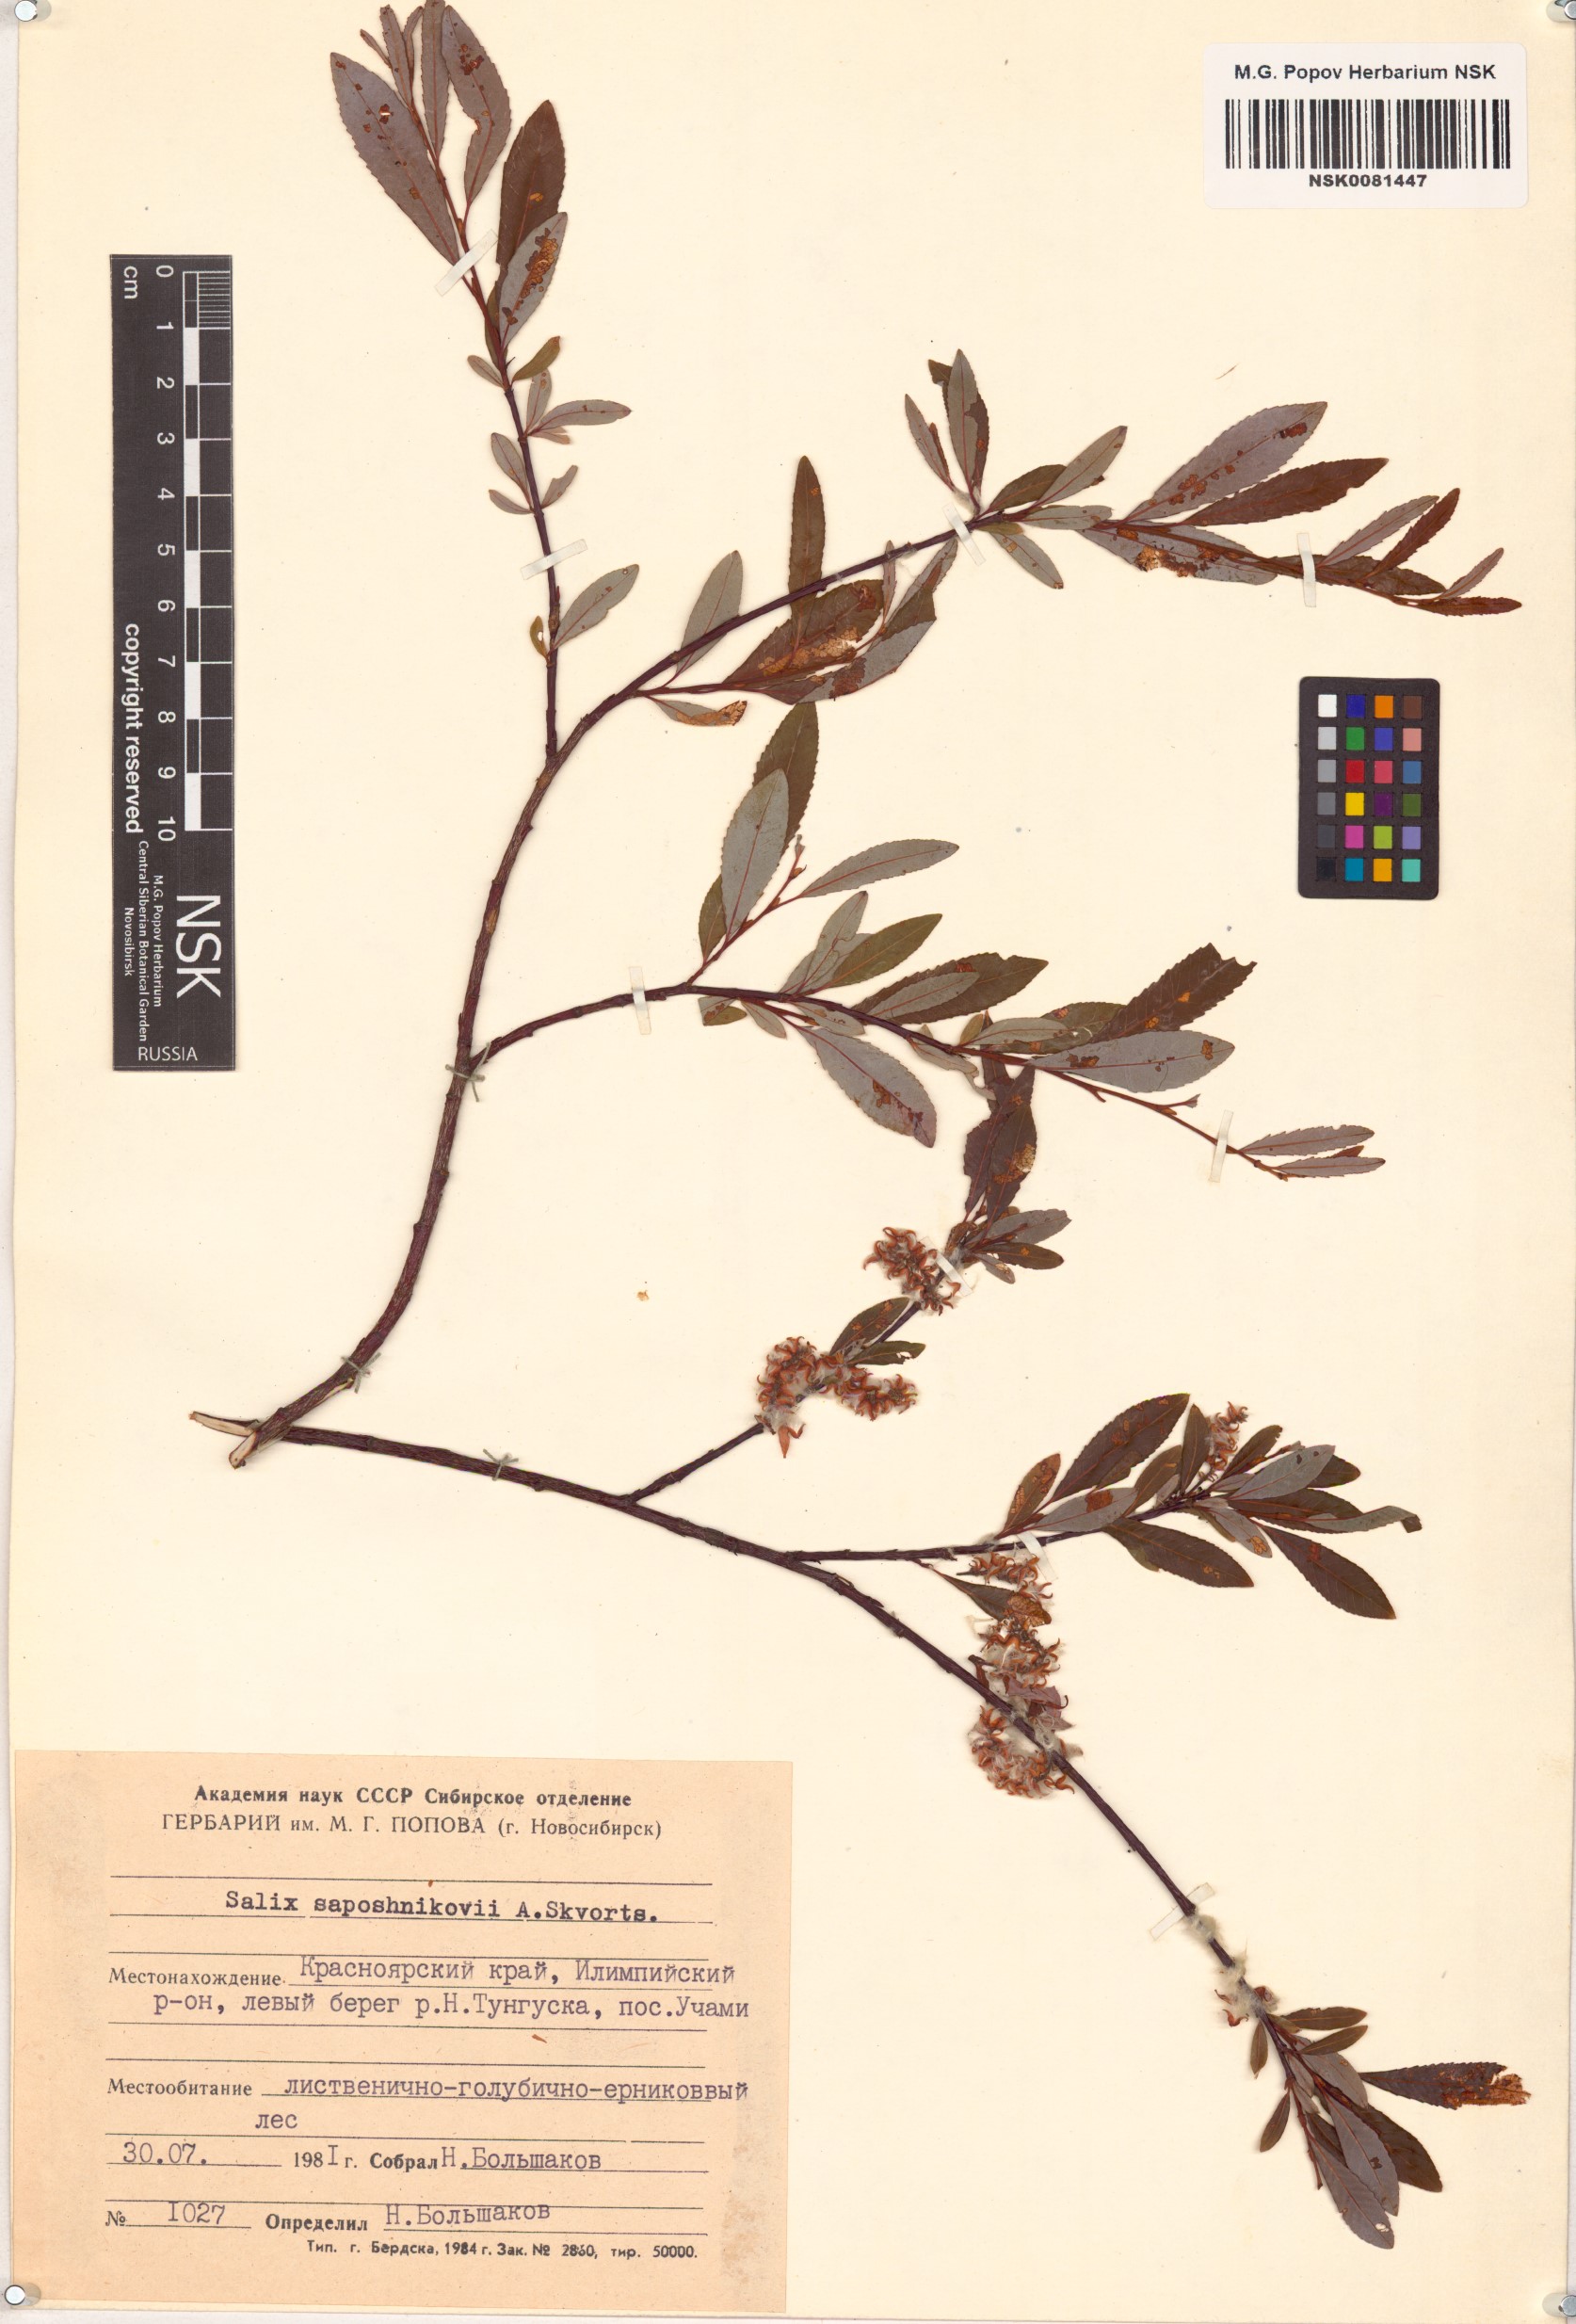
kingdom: Plantae
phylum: Tracheophyta
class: Magnoliopsida
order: Malpighiales
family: Salicaceae
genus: Salix
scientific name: Salix saposhnikovii
